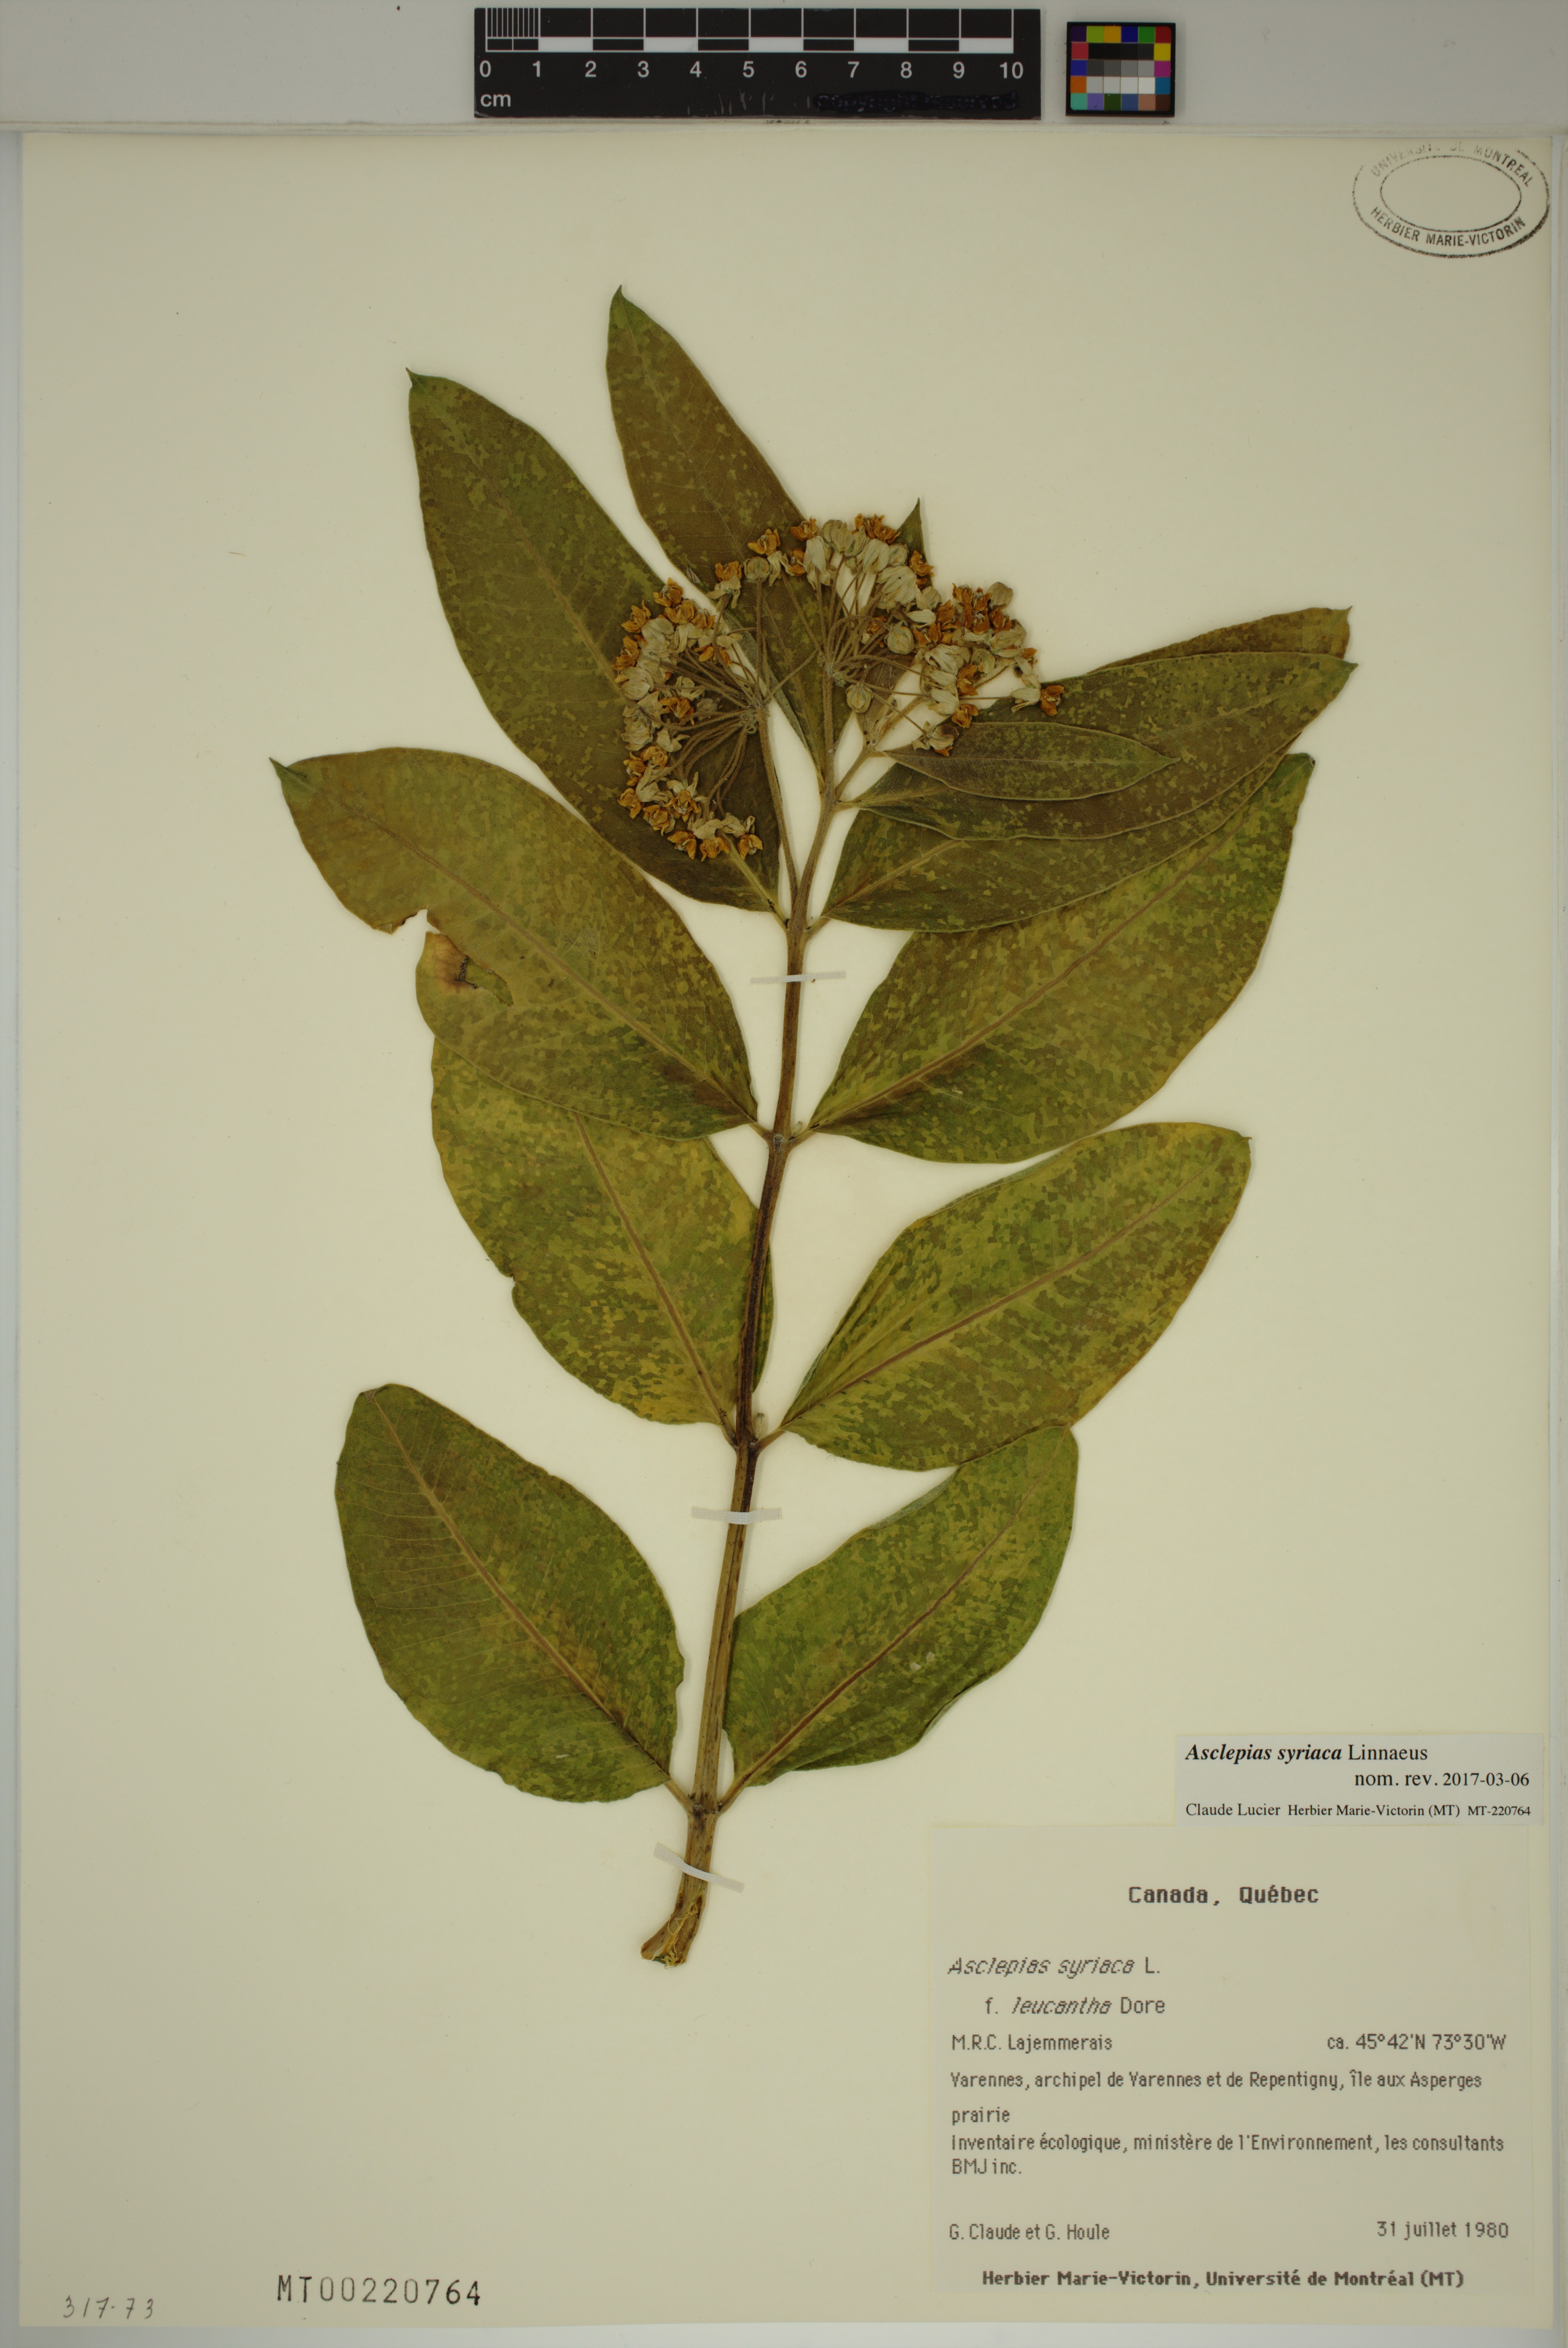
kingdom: Plantae
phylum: Tracheophyta
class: Magnoliopsida
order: Gentianales
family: Apocynaceae
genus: Asclepias
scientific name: Asclepias syriaca
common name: Common milkweed
